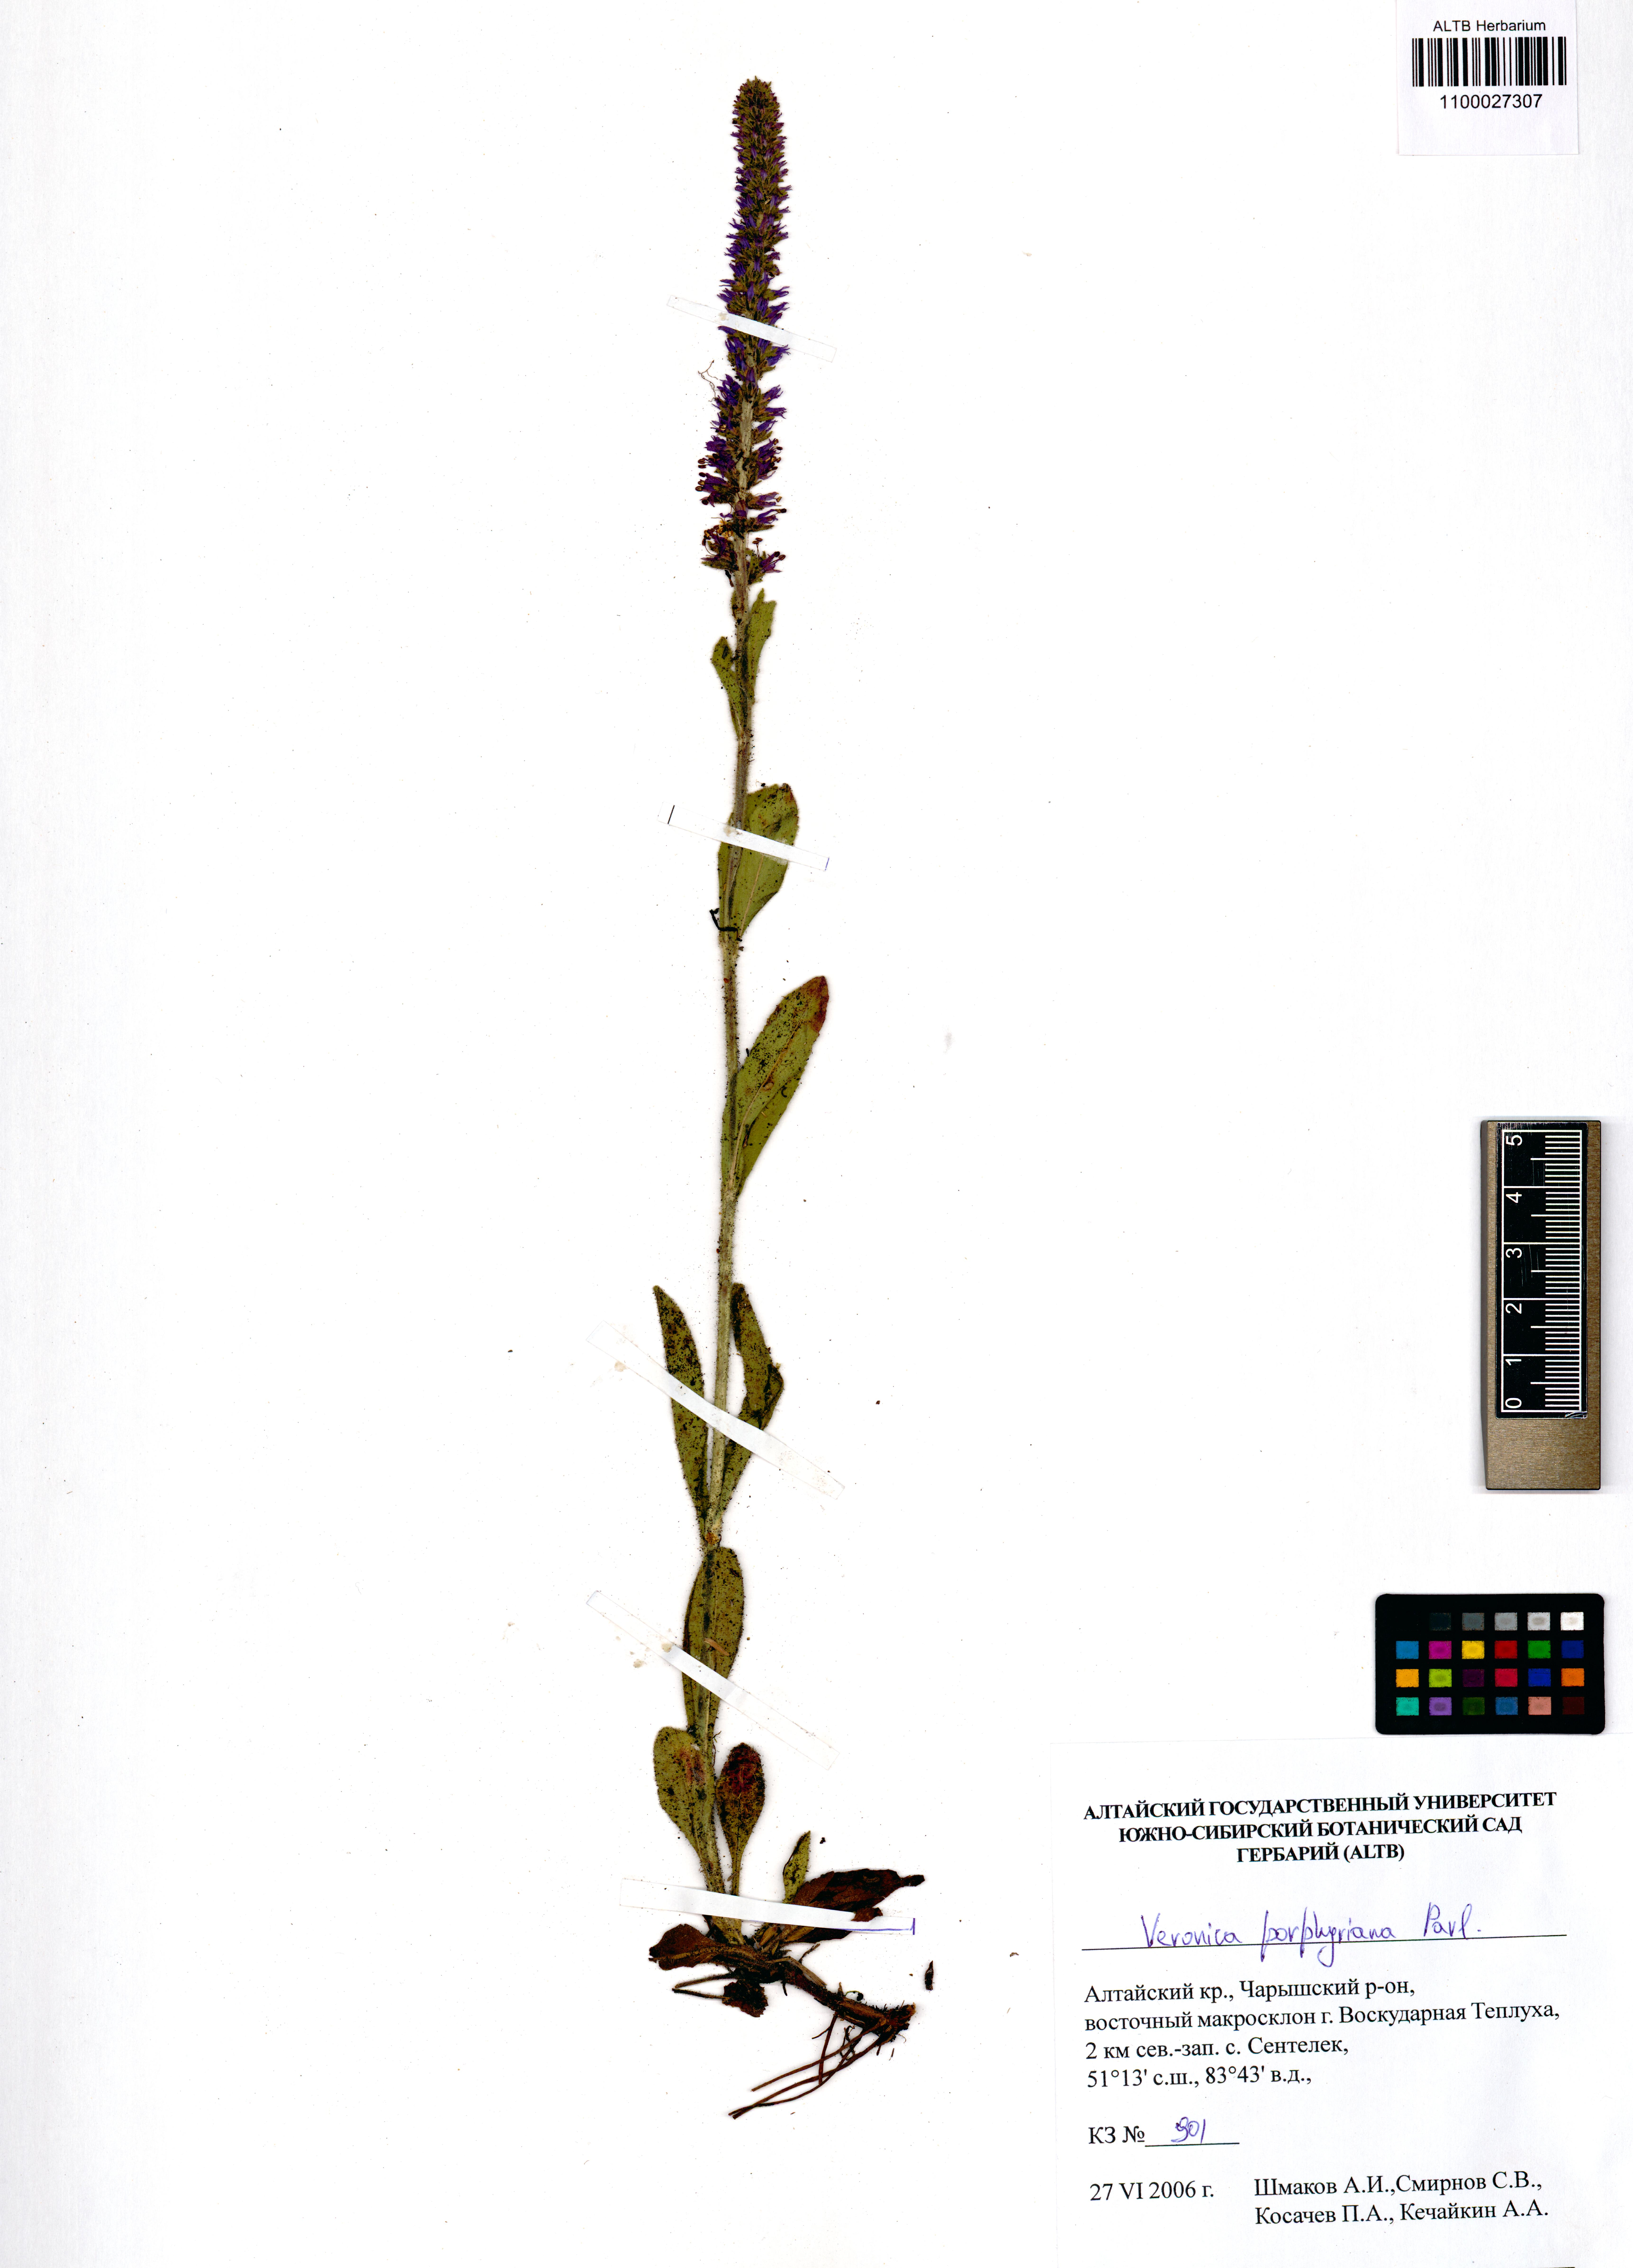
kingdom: Plantae
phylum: Tracheophyta
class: Magnoliopsida
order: Lamiales
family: Plantaginaceae
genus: Veronica
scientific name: Veronica porphyriana
